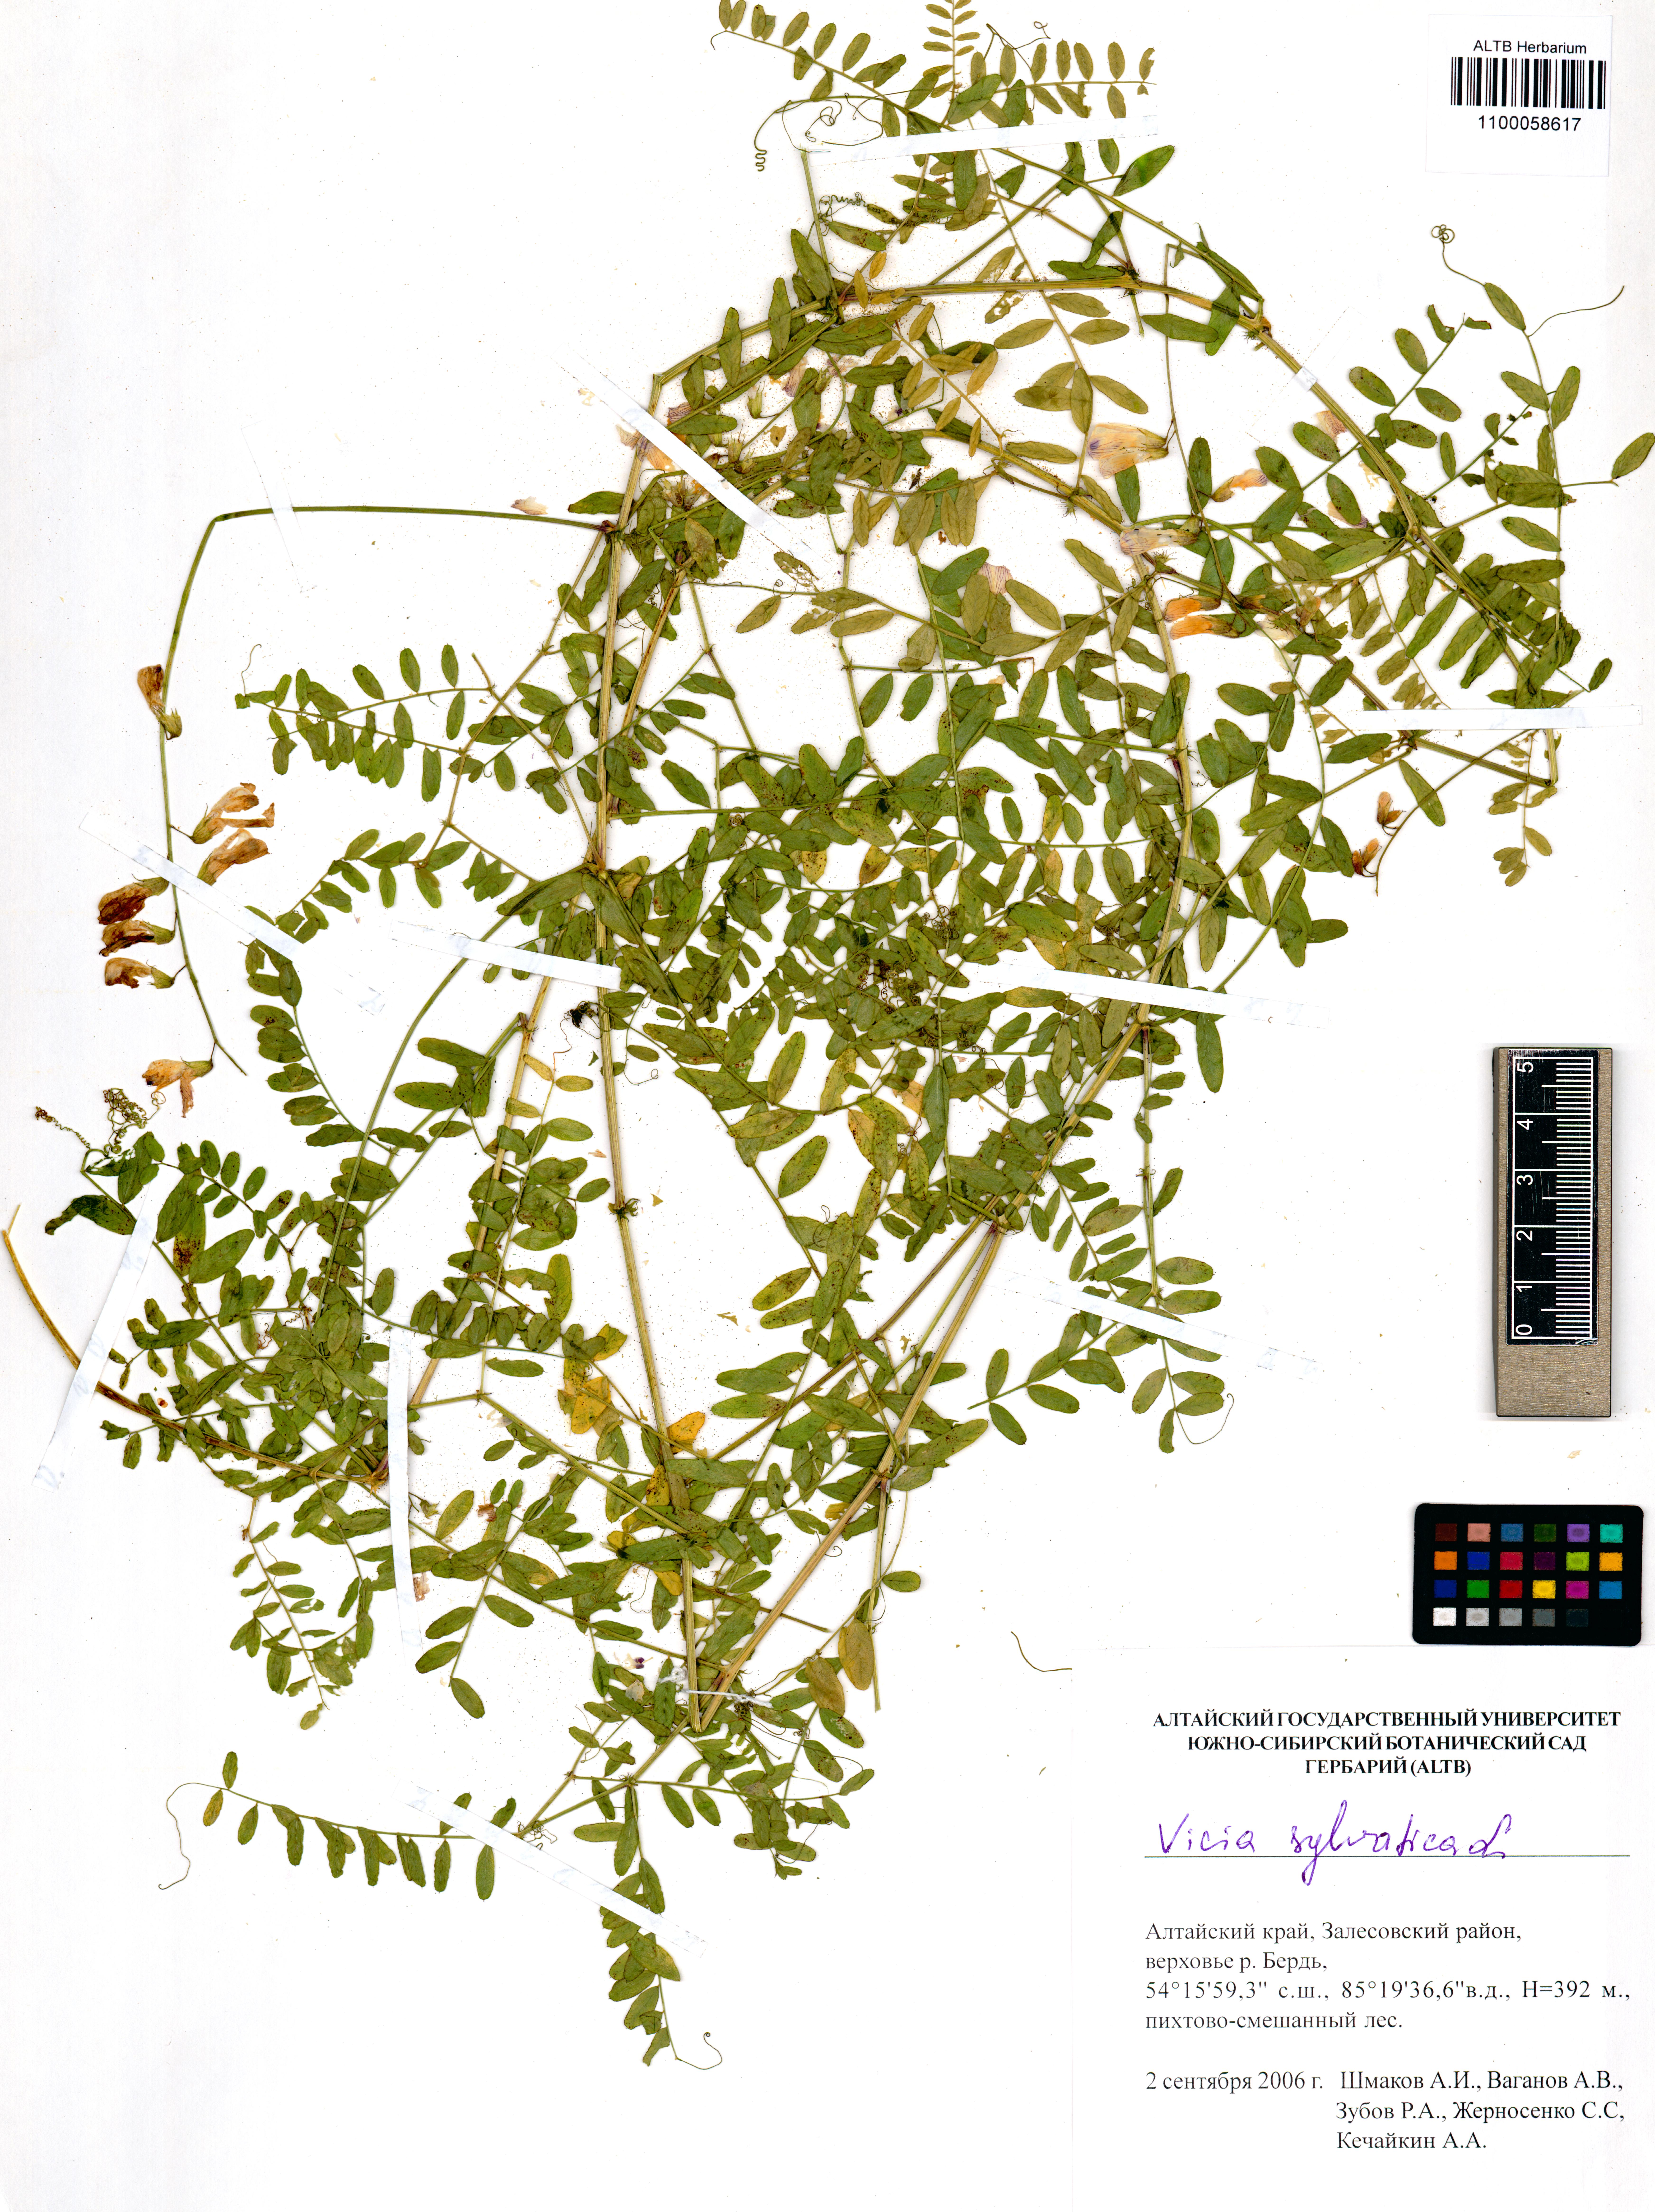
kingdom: Plantae
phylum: Tracheophyta
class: Magnoliopsida
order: Fabales
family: Fabaceae
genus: Vicia
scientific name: Vicia sylvatica
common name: Wood vetch
